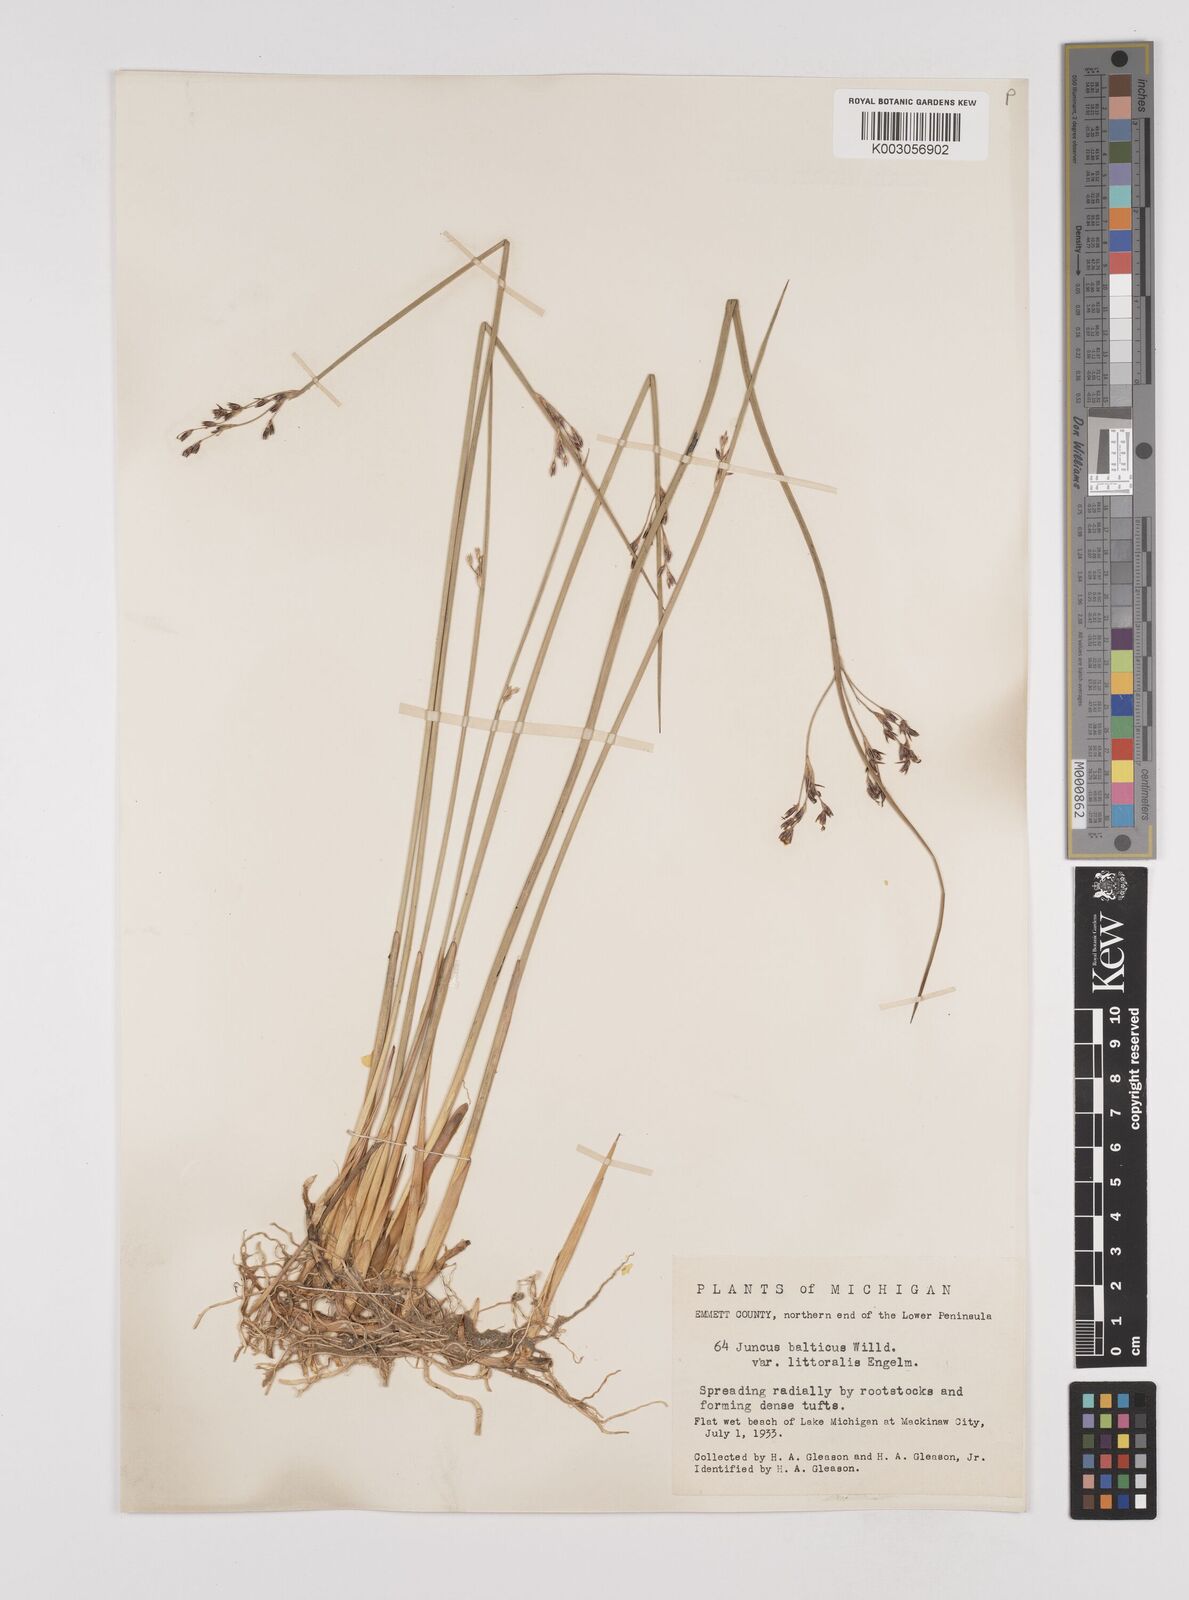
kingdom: Plantae
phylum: Tracheophyta
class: Liliopsida
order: Poales
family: Juncaceae
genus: Juncus
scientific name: Juncus balticus
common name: Baltic rush
